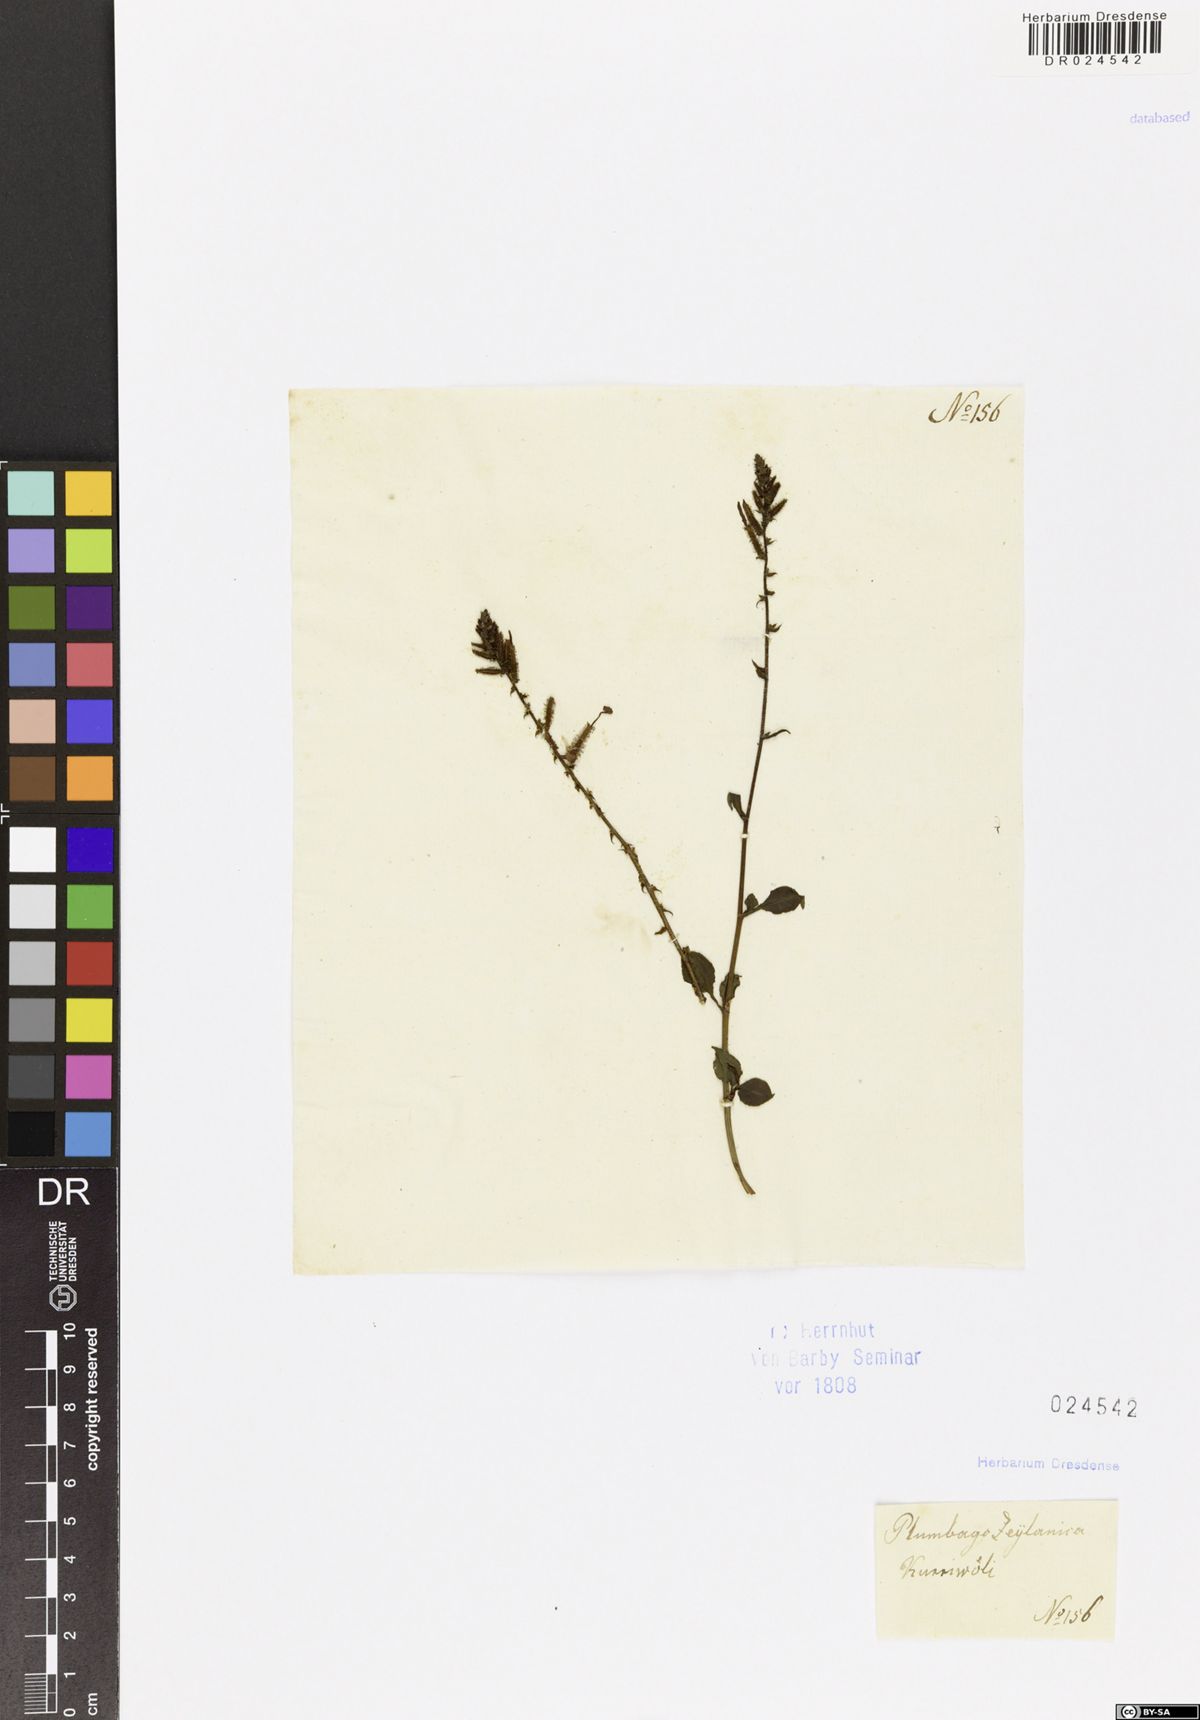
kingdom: Plantae
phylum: Tracheophyta
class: Magnoliopsida
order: Caryophyllales
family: Plumbaginaceae
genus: Plumbago
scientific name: Plumbago zeylanica
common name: Doctorbush
